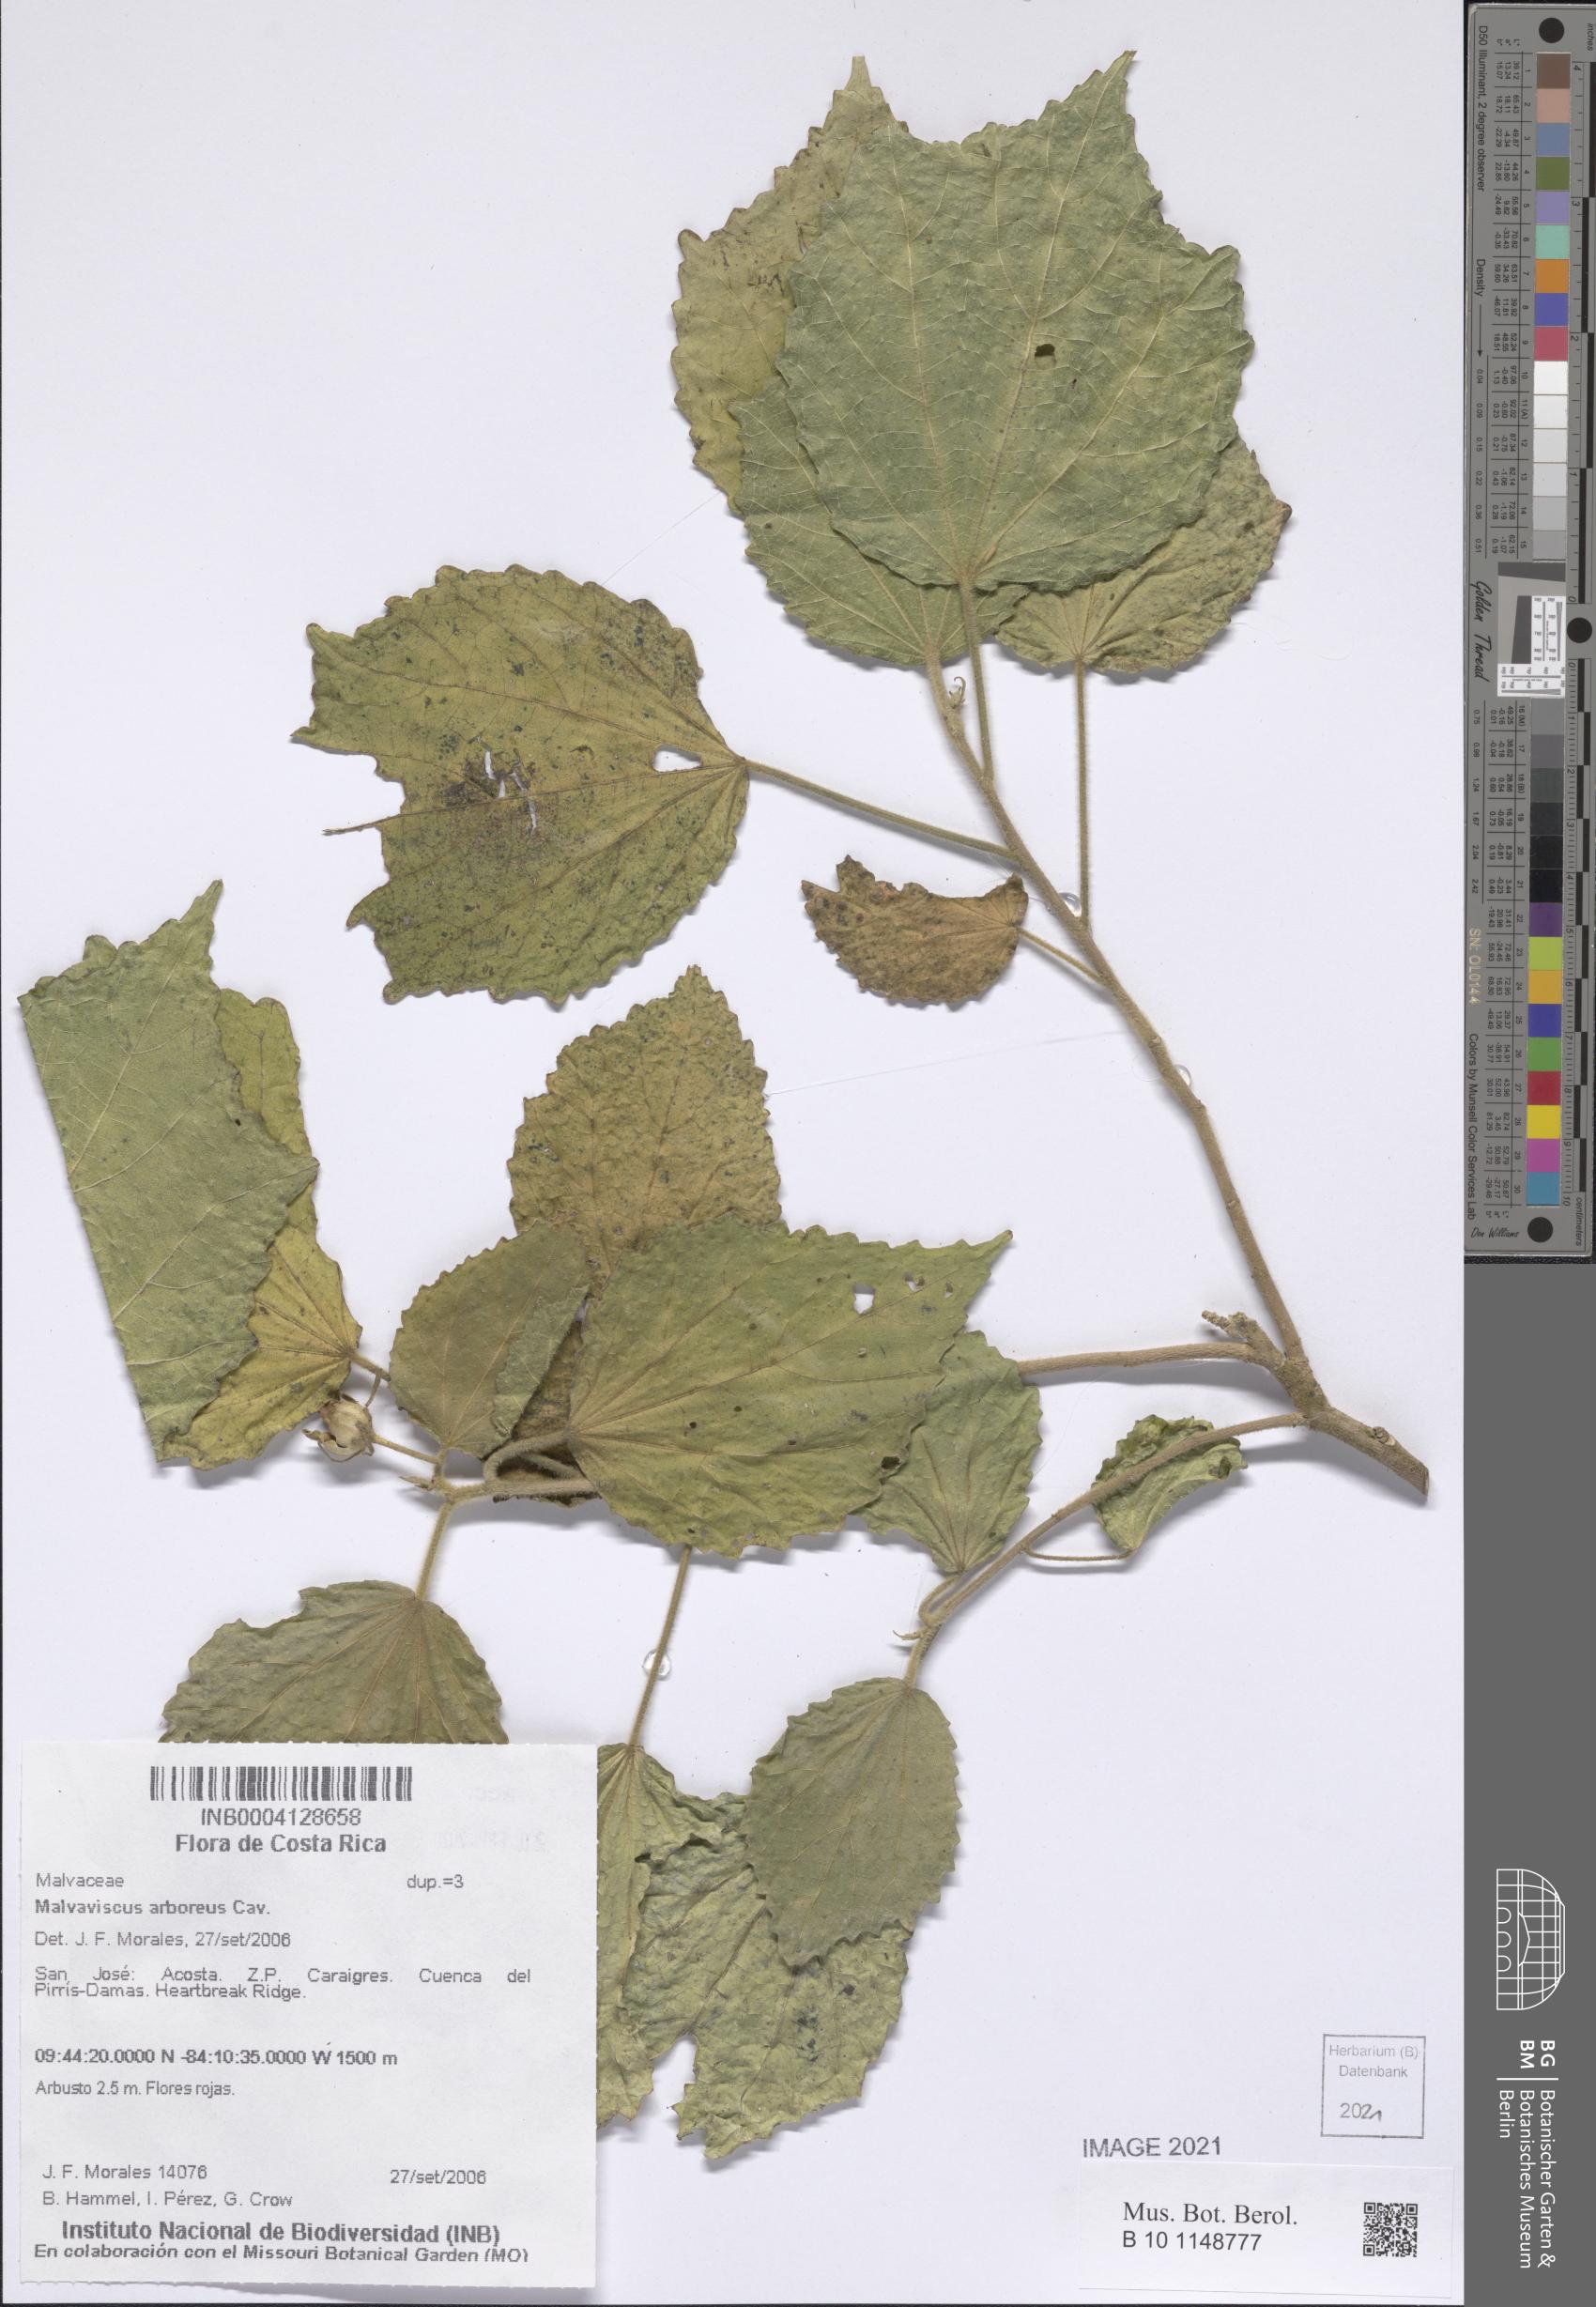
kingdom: Plantae
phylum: Tracheophyta
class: Magnoliopsida
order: Malvales
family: Malvaceae
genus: Malvaviscus
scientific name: Malvaviscus arboreus
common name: Wax mallow
